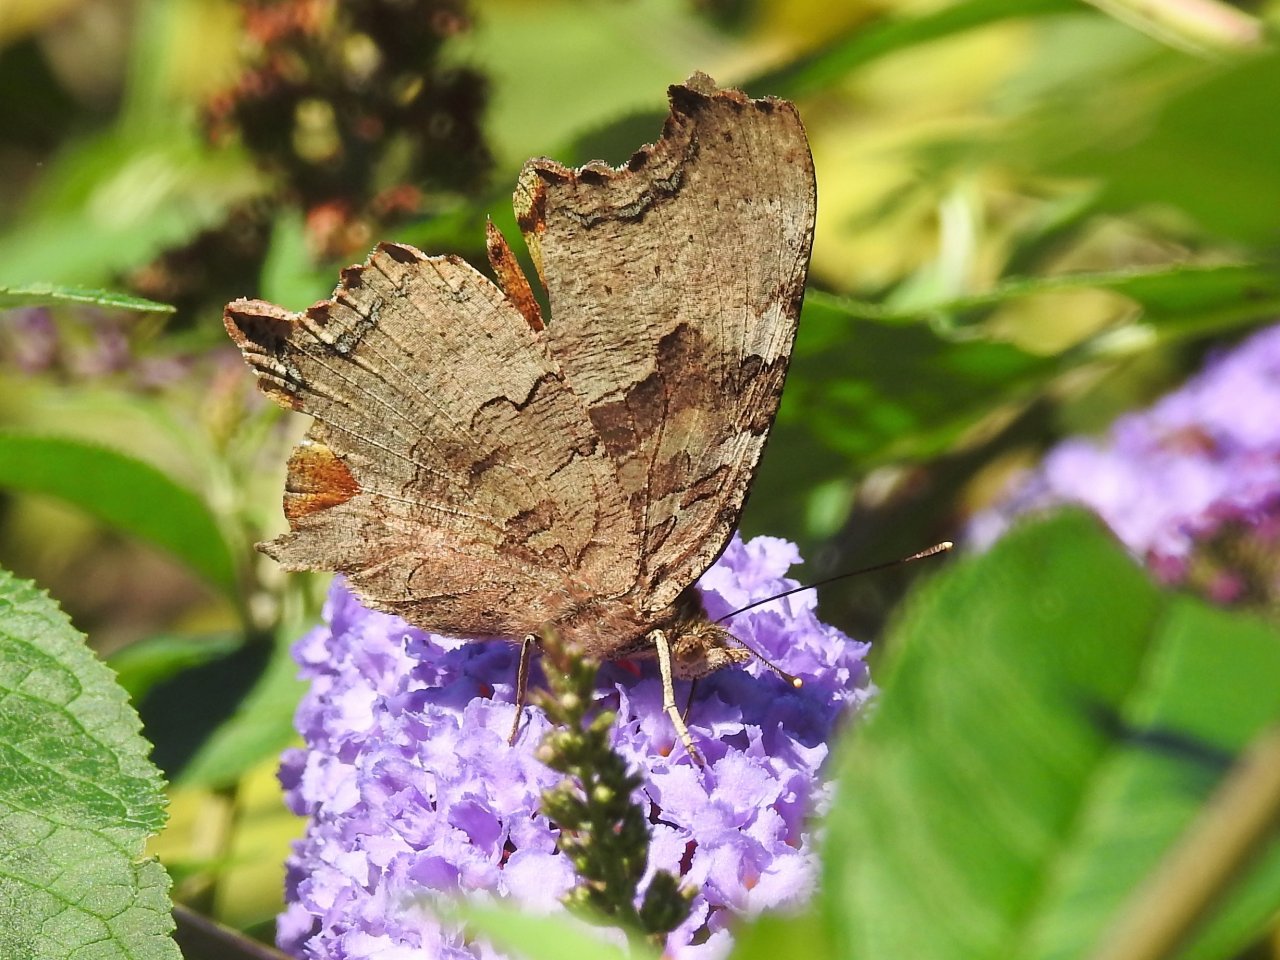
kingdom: Animalia
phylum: Arthropoda
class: Insecta
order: Lepidoptera
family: Nymphalidae
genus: Polygonia
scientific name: Polygonia vaualbum
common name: Compton Tortoiseshell
